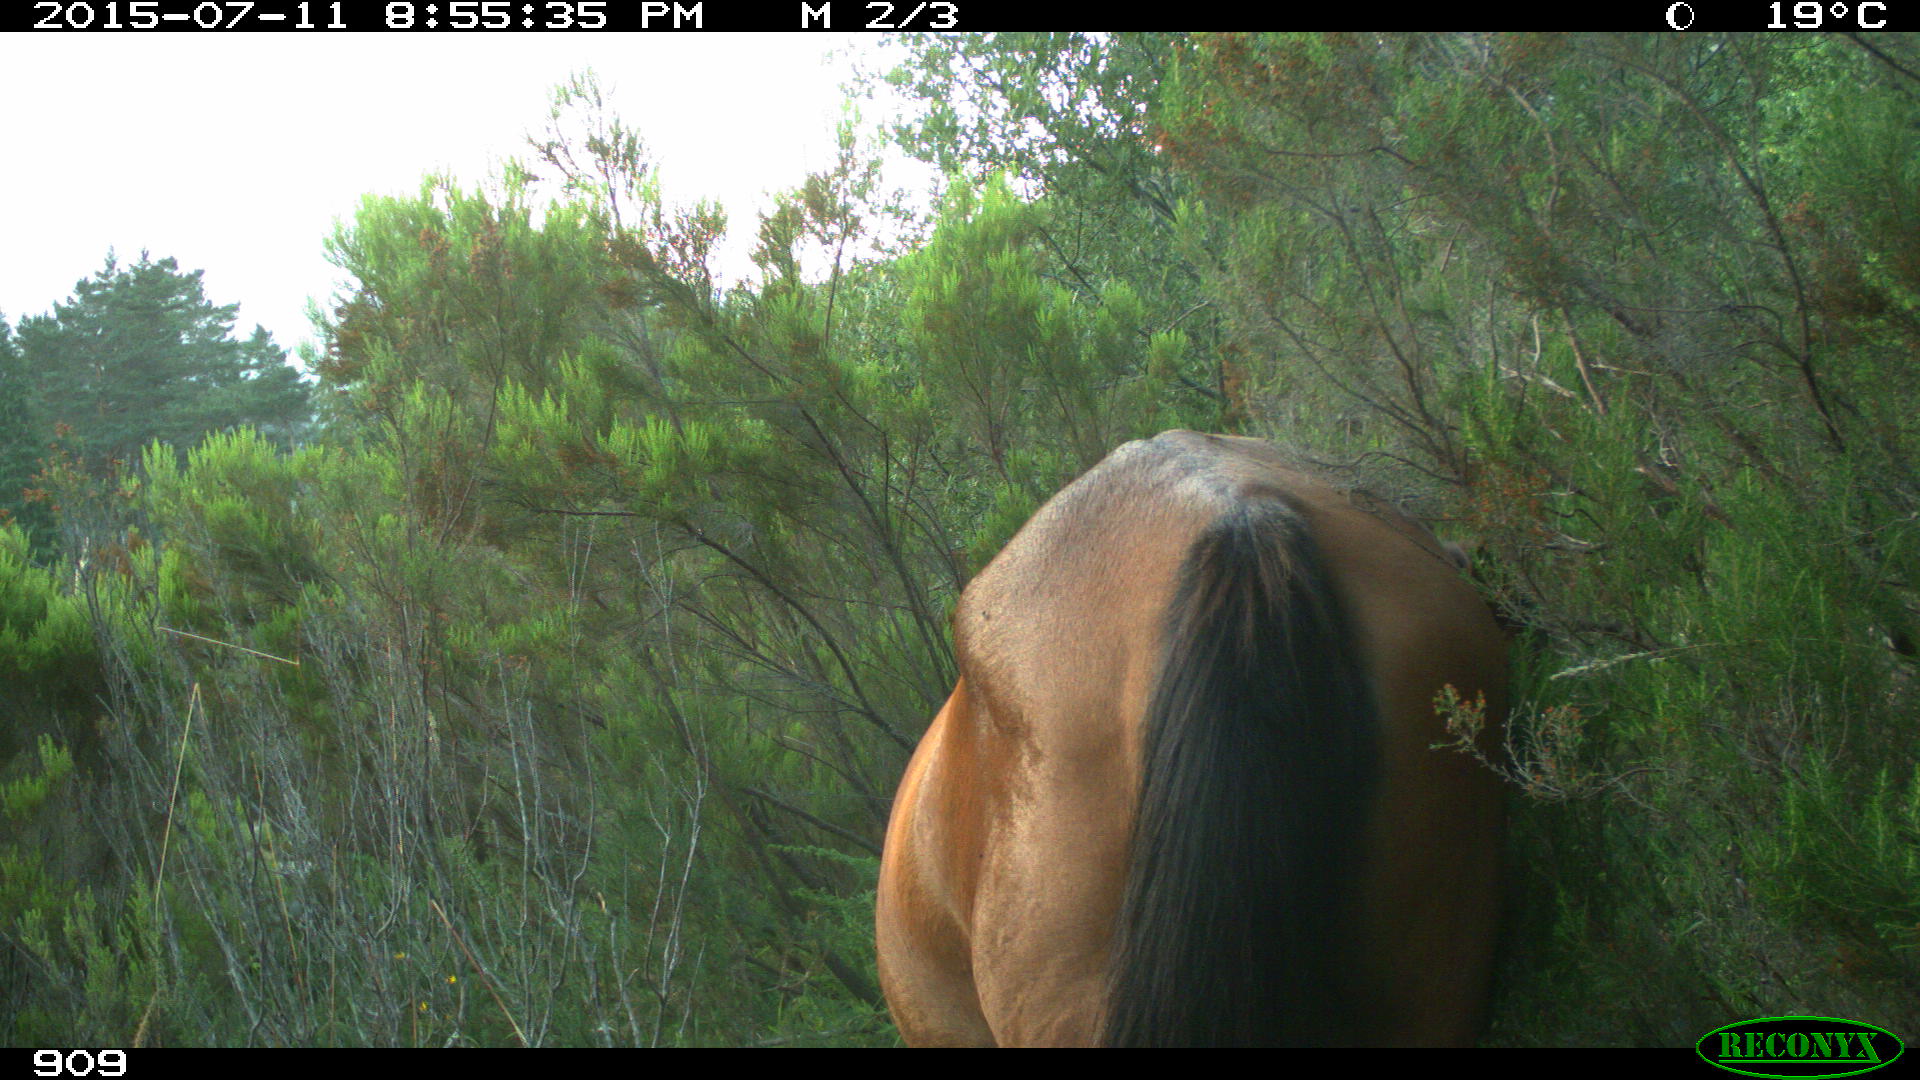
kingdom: Animalia
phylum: Chordata
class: Mammalia
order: Perissodactyla
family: Equidae
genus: Equus
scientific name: Equus caballus
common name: Horse
